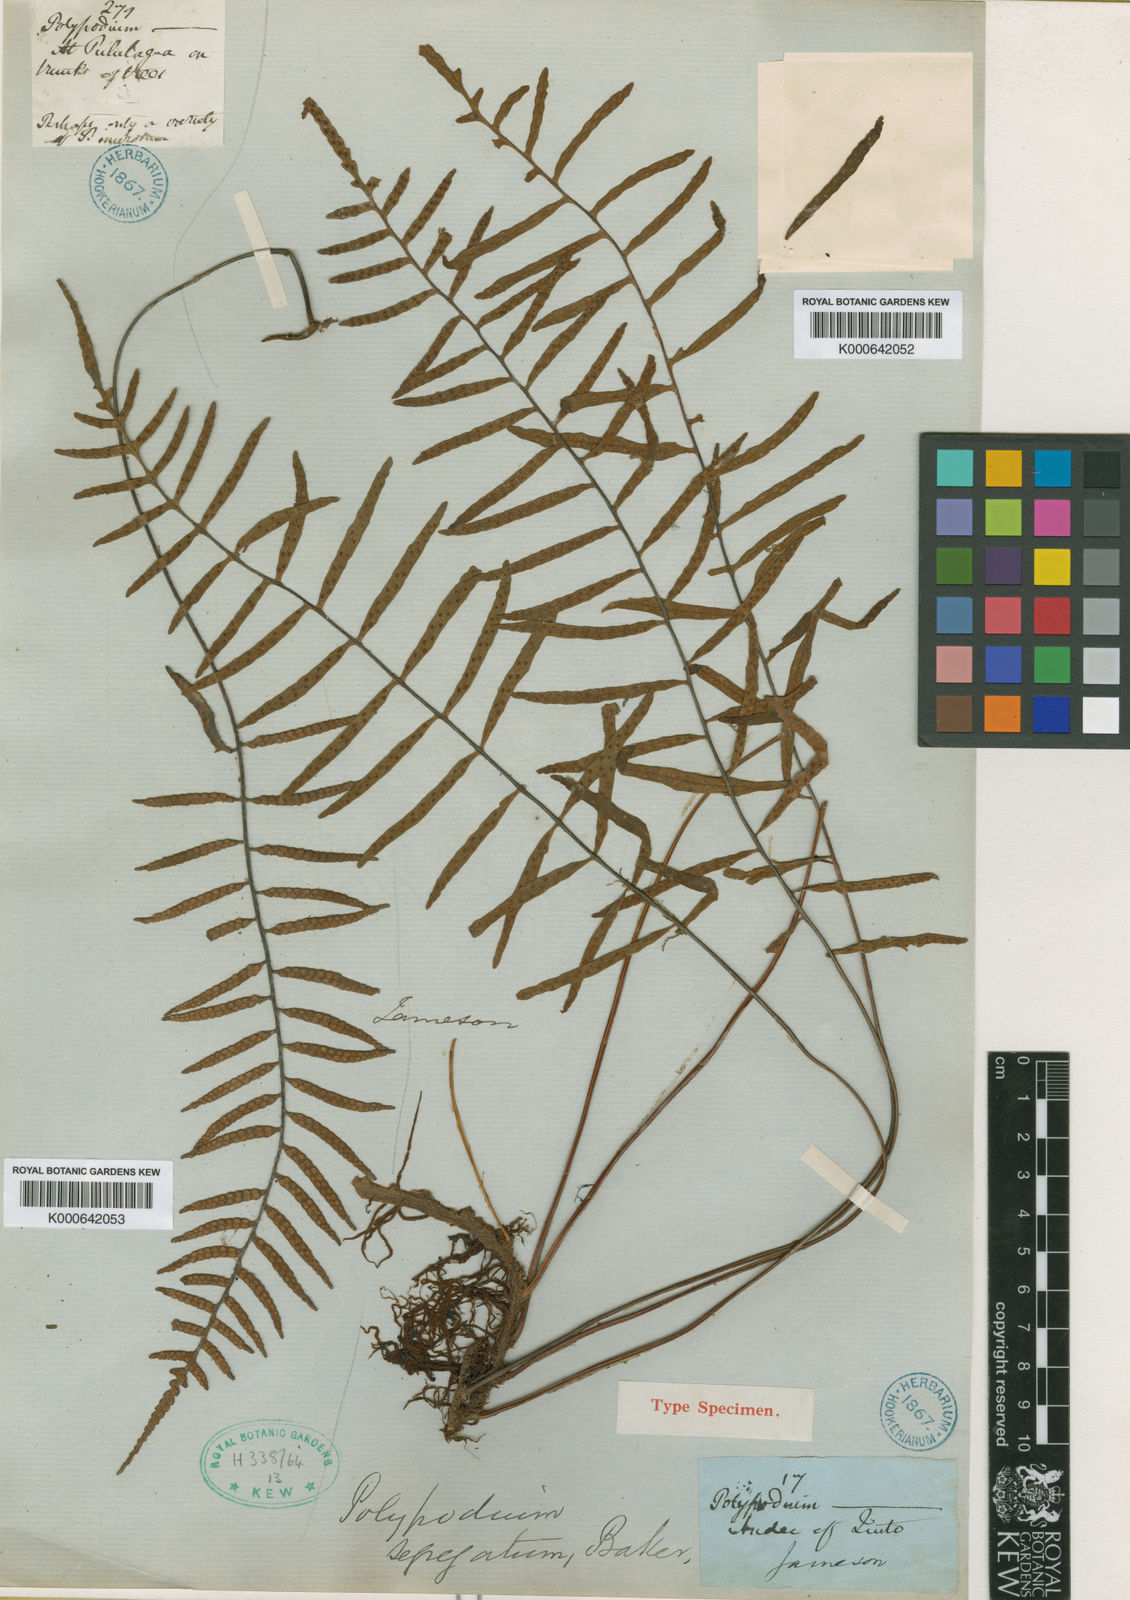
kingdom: Plantae
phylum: Tracheophyta
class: Polypodiopsida
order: Polypodiales
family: Polypodiaceae
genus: Pleopeltis
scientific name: Pleopeltis segregata
